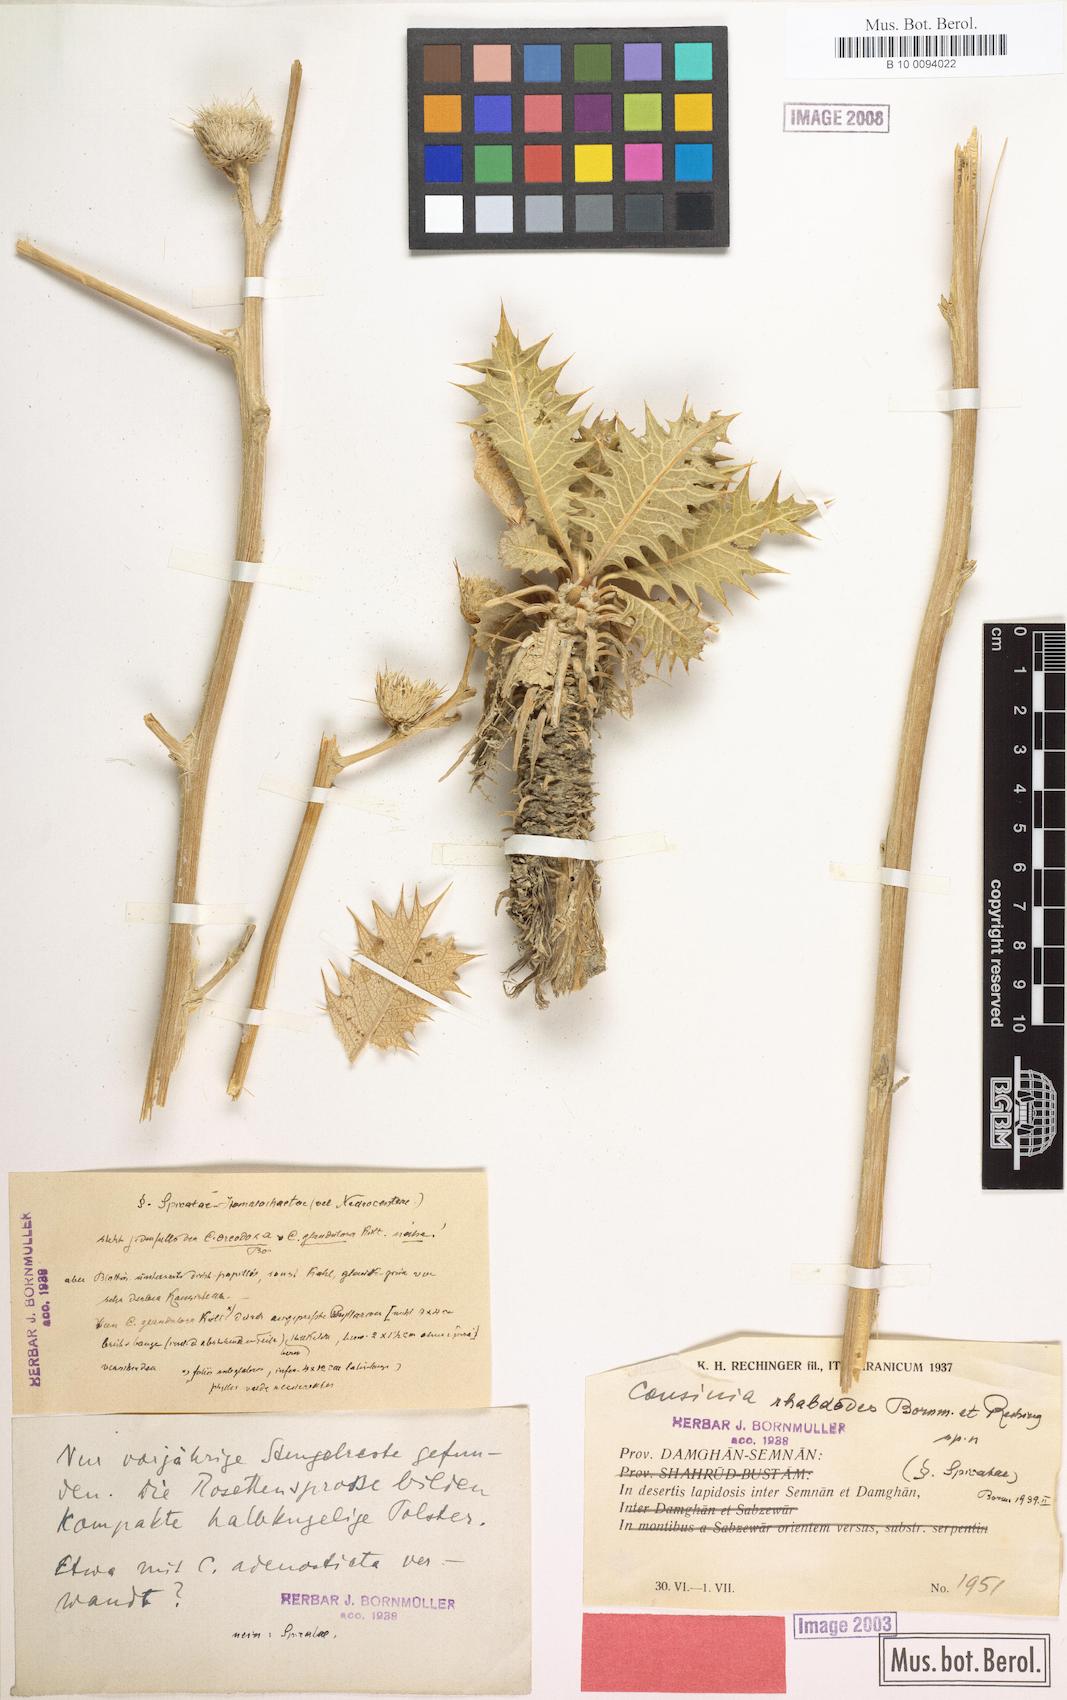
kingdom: Plantae
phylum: Tracheophyta
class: Magnoliopsida
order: Asterales
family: Asteraceae
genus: Cousinia
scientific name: Cousinia rhabdodes
